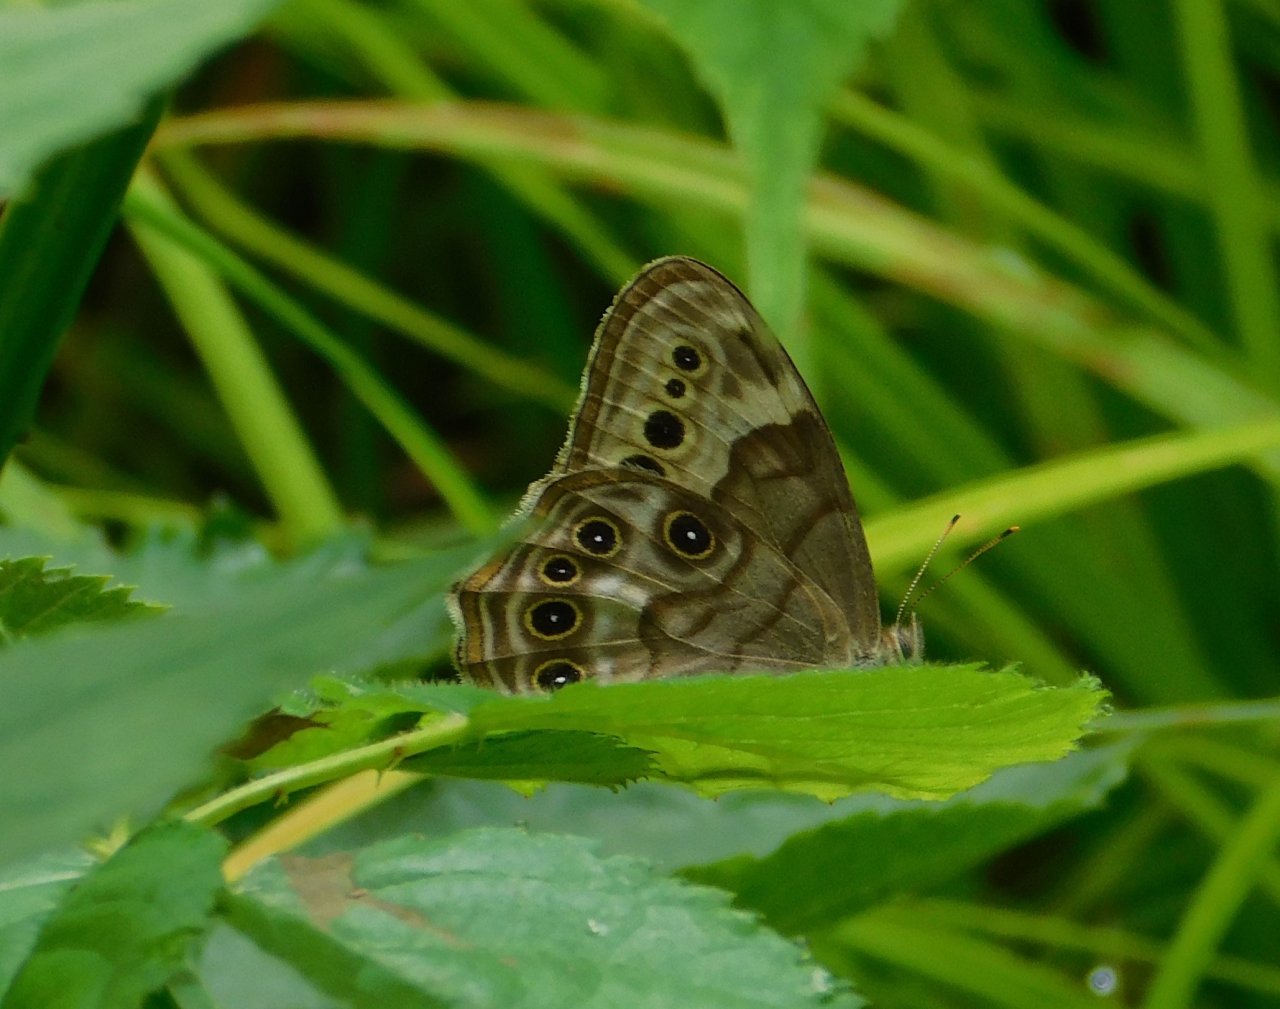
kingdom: Animalia
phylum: Arthropoda
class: Insecta
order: Lepidoptera
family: Nymphalidae
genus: Lethe
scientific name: Lethe anthedon
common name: Northern Pearly-Eye
